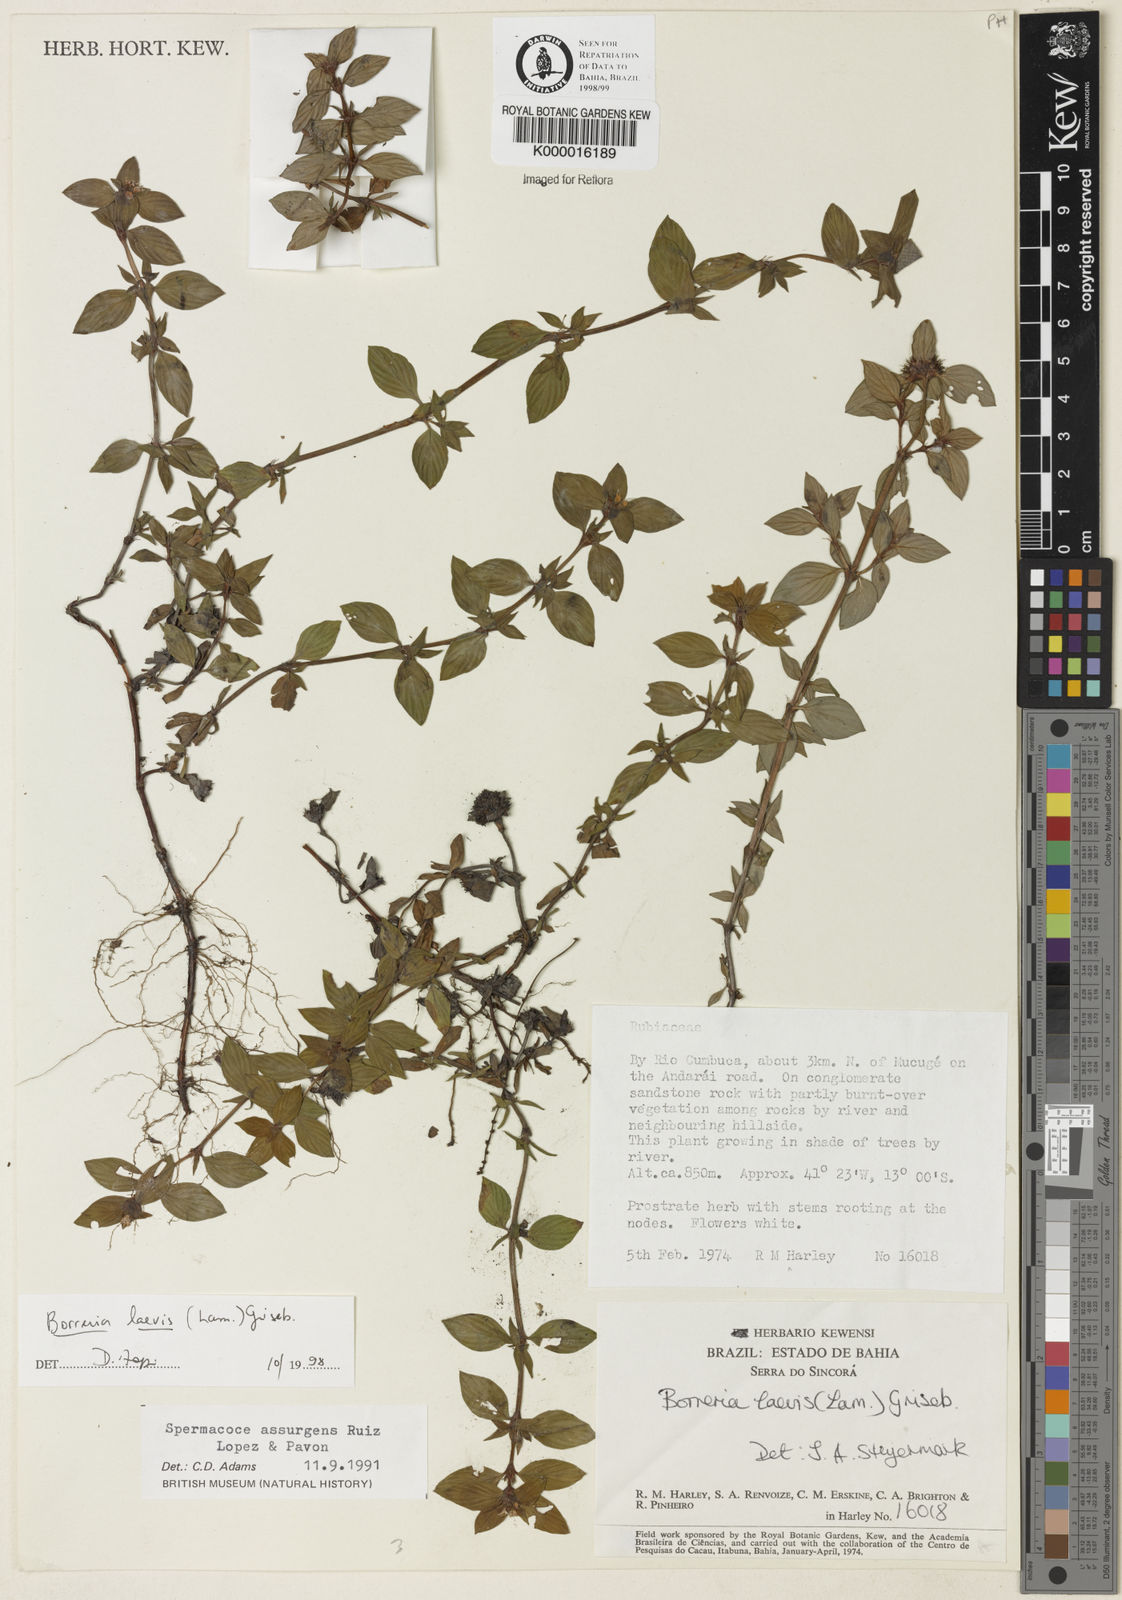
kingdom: Plantae
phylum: Tracheophyta
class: Magnoliopsida
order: Gentianales
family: Rubiaceae
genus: Spermacoce
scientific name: Spermacoce tenuior
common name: River false buttonweed
